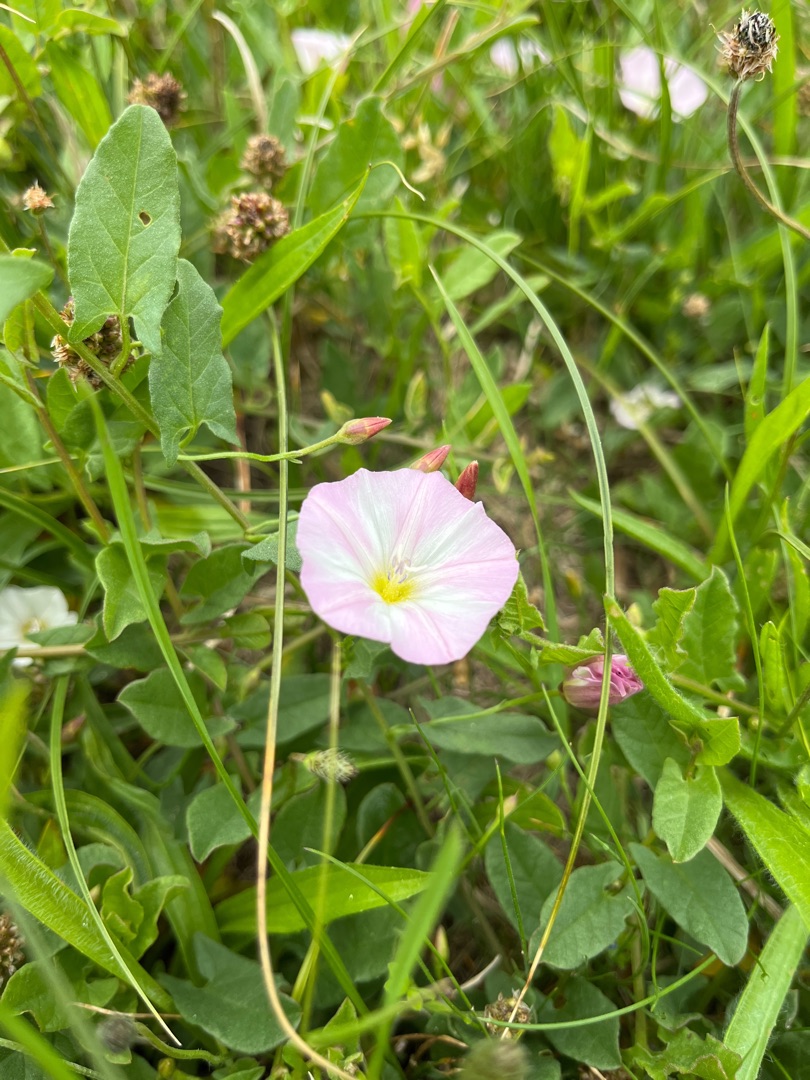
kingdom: Plantae
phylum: Tracheophyta
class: Magnoliopsida
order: Solanales
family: Convolvulaceae
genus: Convolvulus
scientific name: Convolvulus arvensis
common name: Ager-snerle
